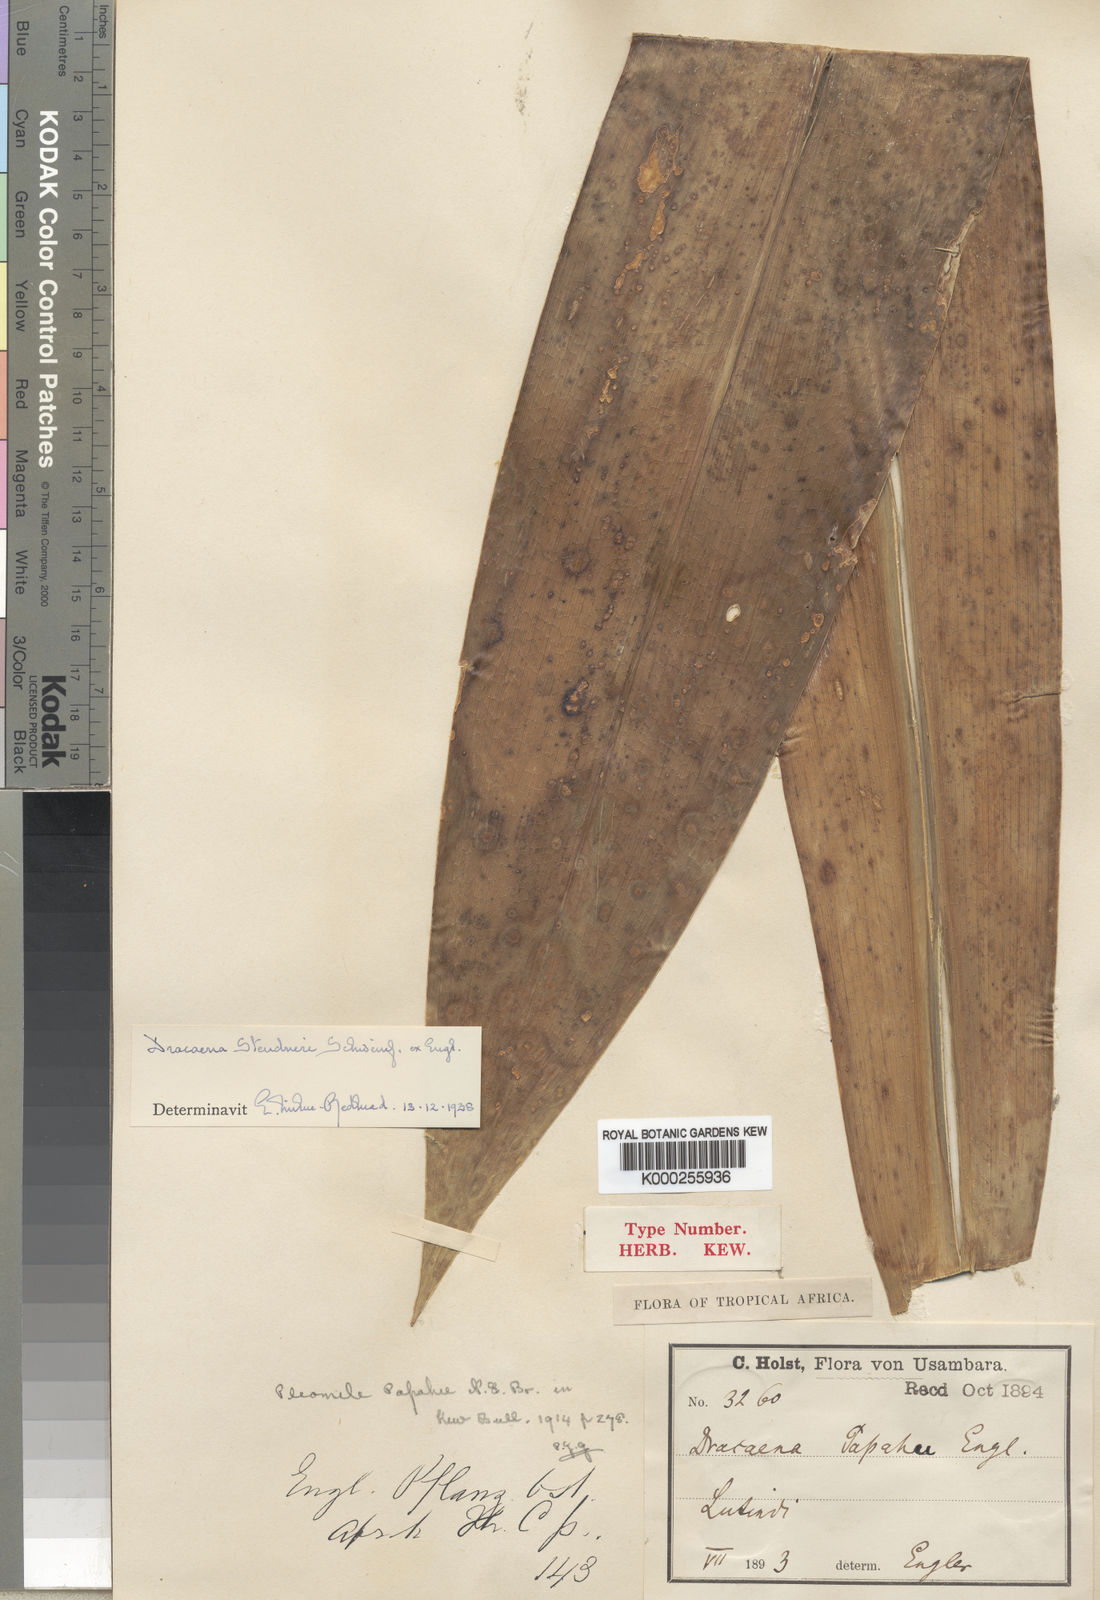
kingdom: Plantae
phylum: Tracheophyta
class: Liliopsida
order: Asparagales
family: Asparagaceae
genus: Dracaena
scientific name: Dracaena steudneri
